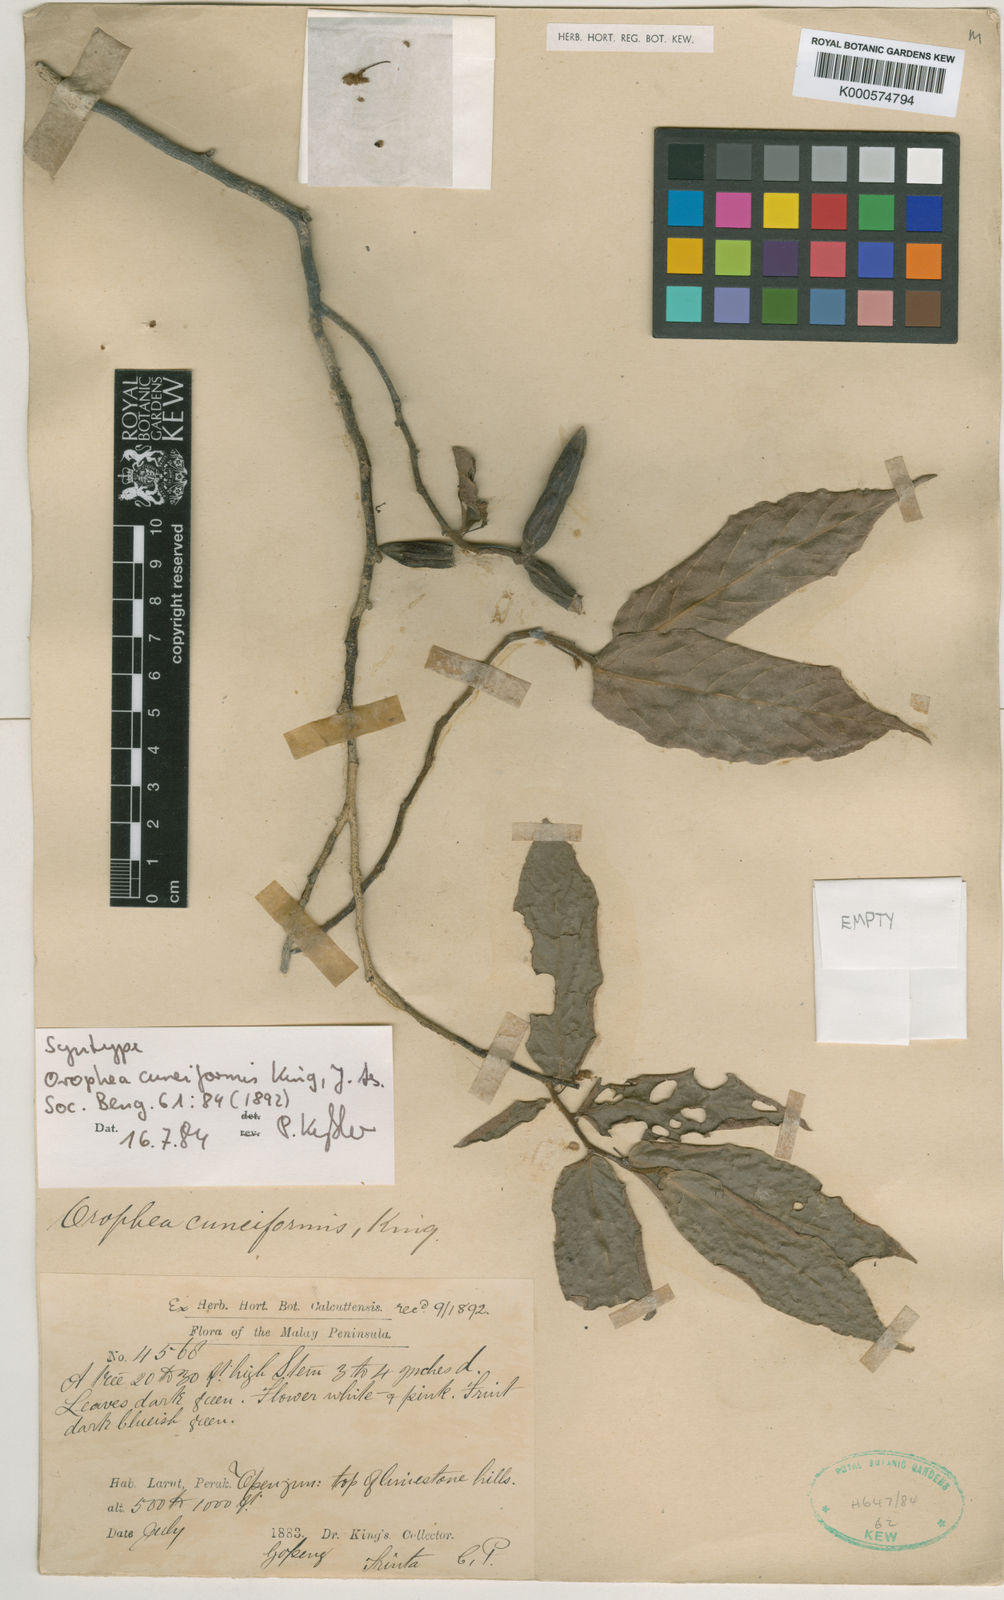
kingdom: Plantae
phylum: Tracheophyta
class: Magnoliopsida
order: Magnoliales
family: Annonaceae
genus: Orophea
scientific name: Orophea cuneiformis
